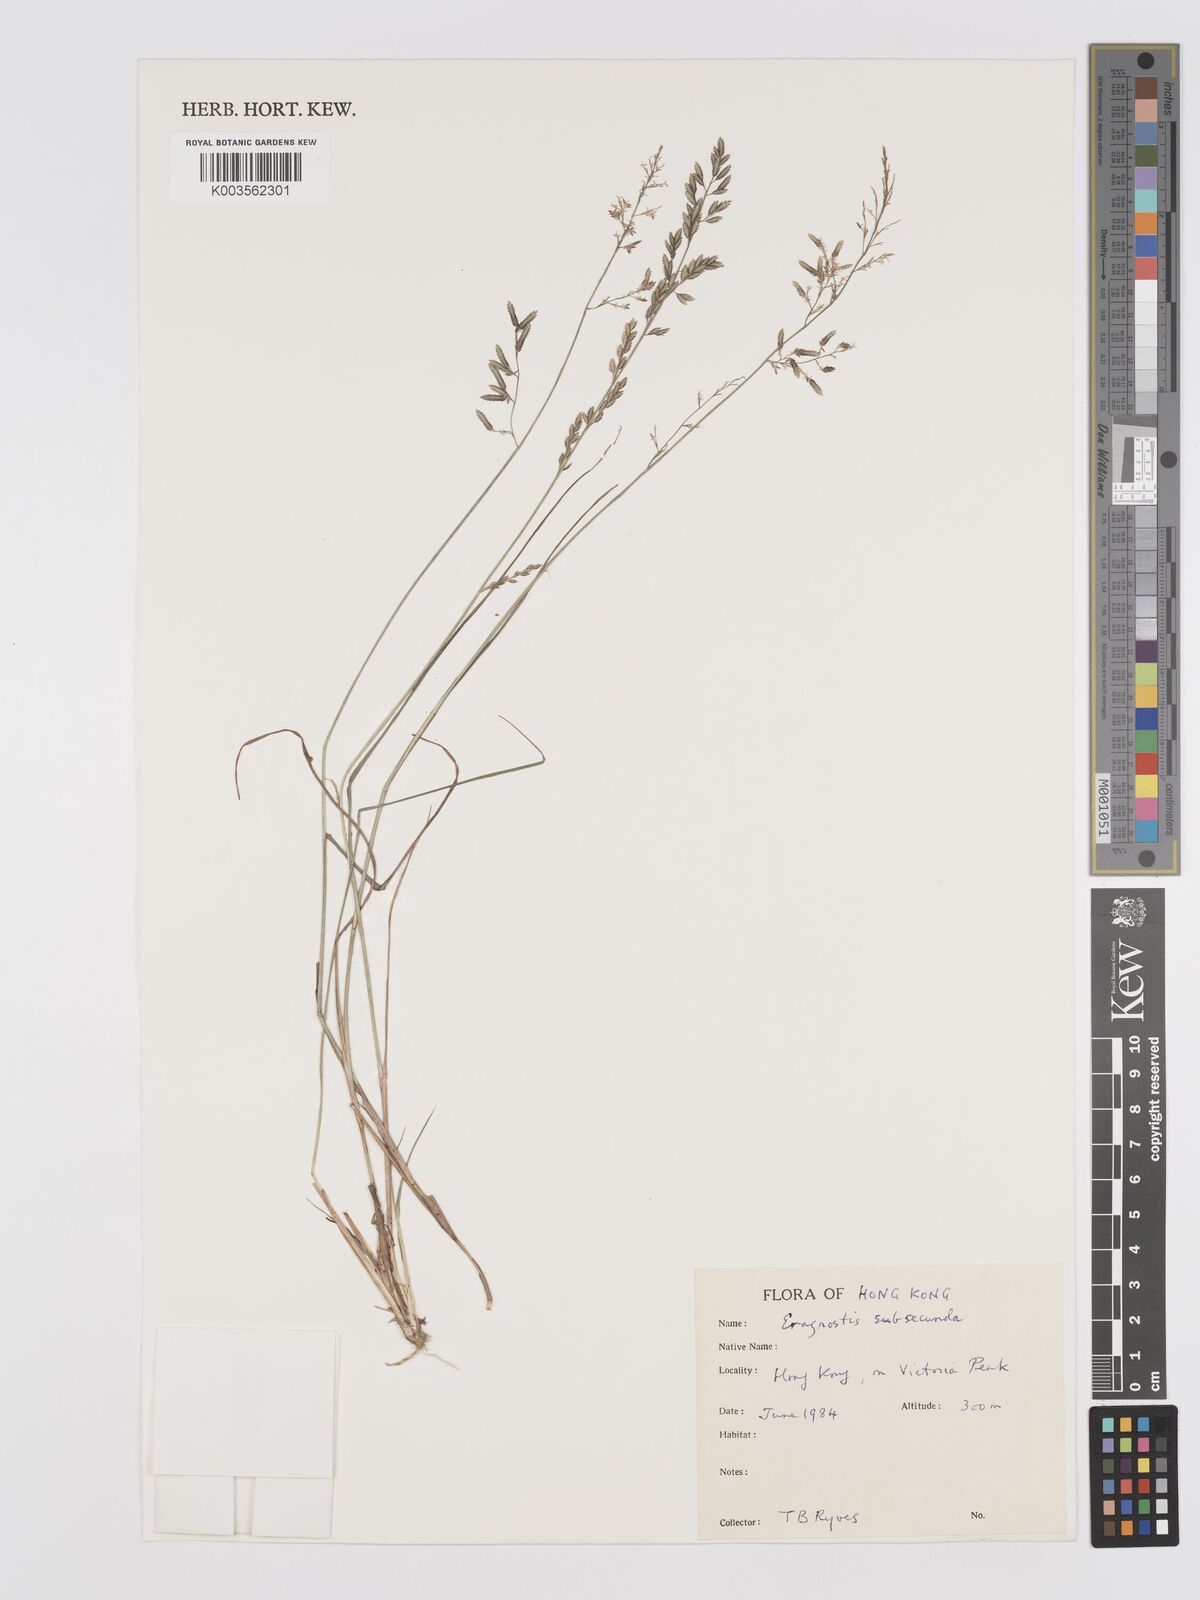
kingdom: Plantae
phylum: Tracheophyta
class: Liliopsida
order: Poales
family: Poaceae
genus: Eragrostis
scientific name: Eragrostis subsecunda
